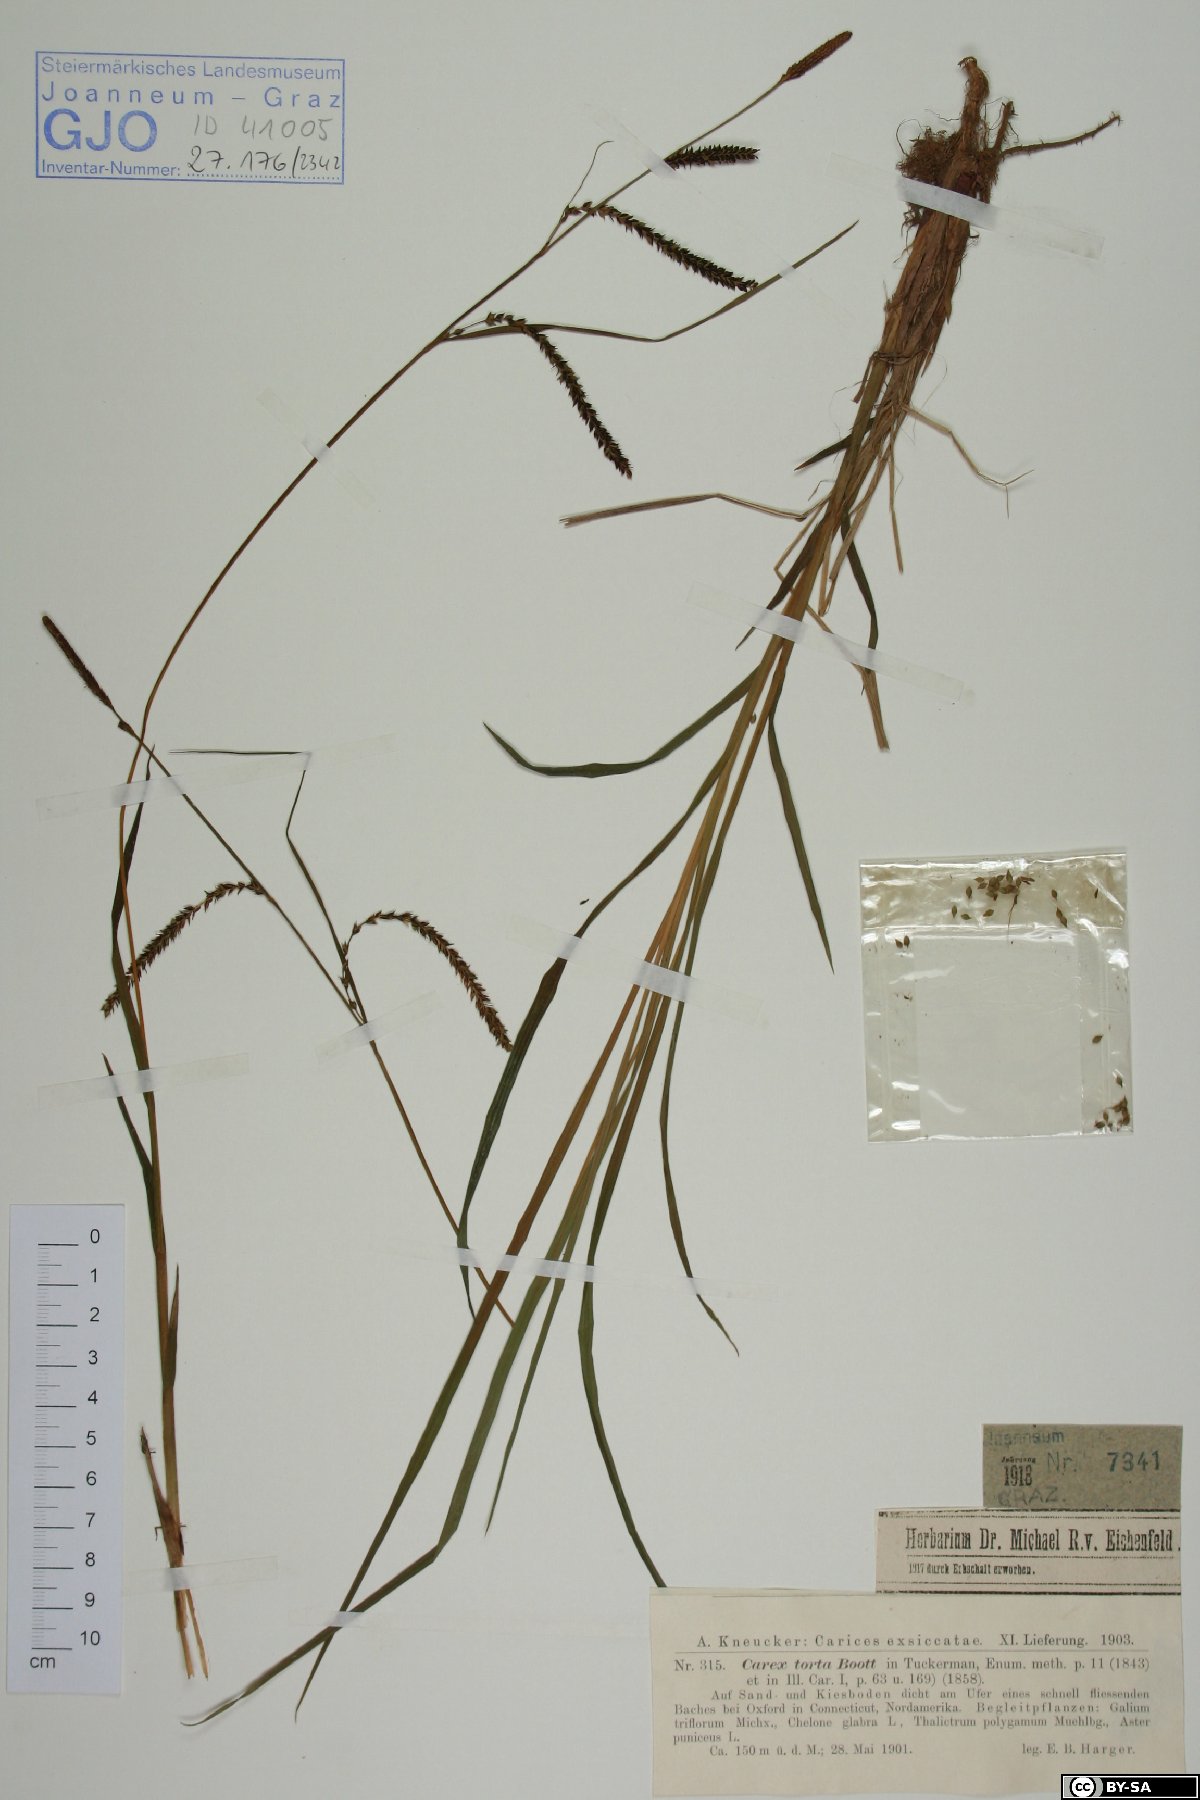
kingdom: Plantae
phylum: Tracheophyta
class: Liliopsida
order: Poales
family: Cyperaceae
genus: Carex
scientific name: Carex torta
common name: Twisted sedge
